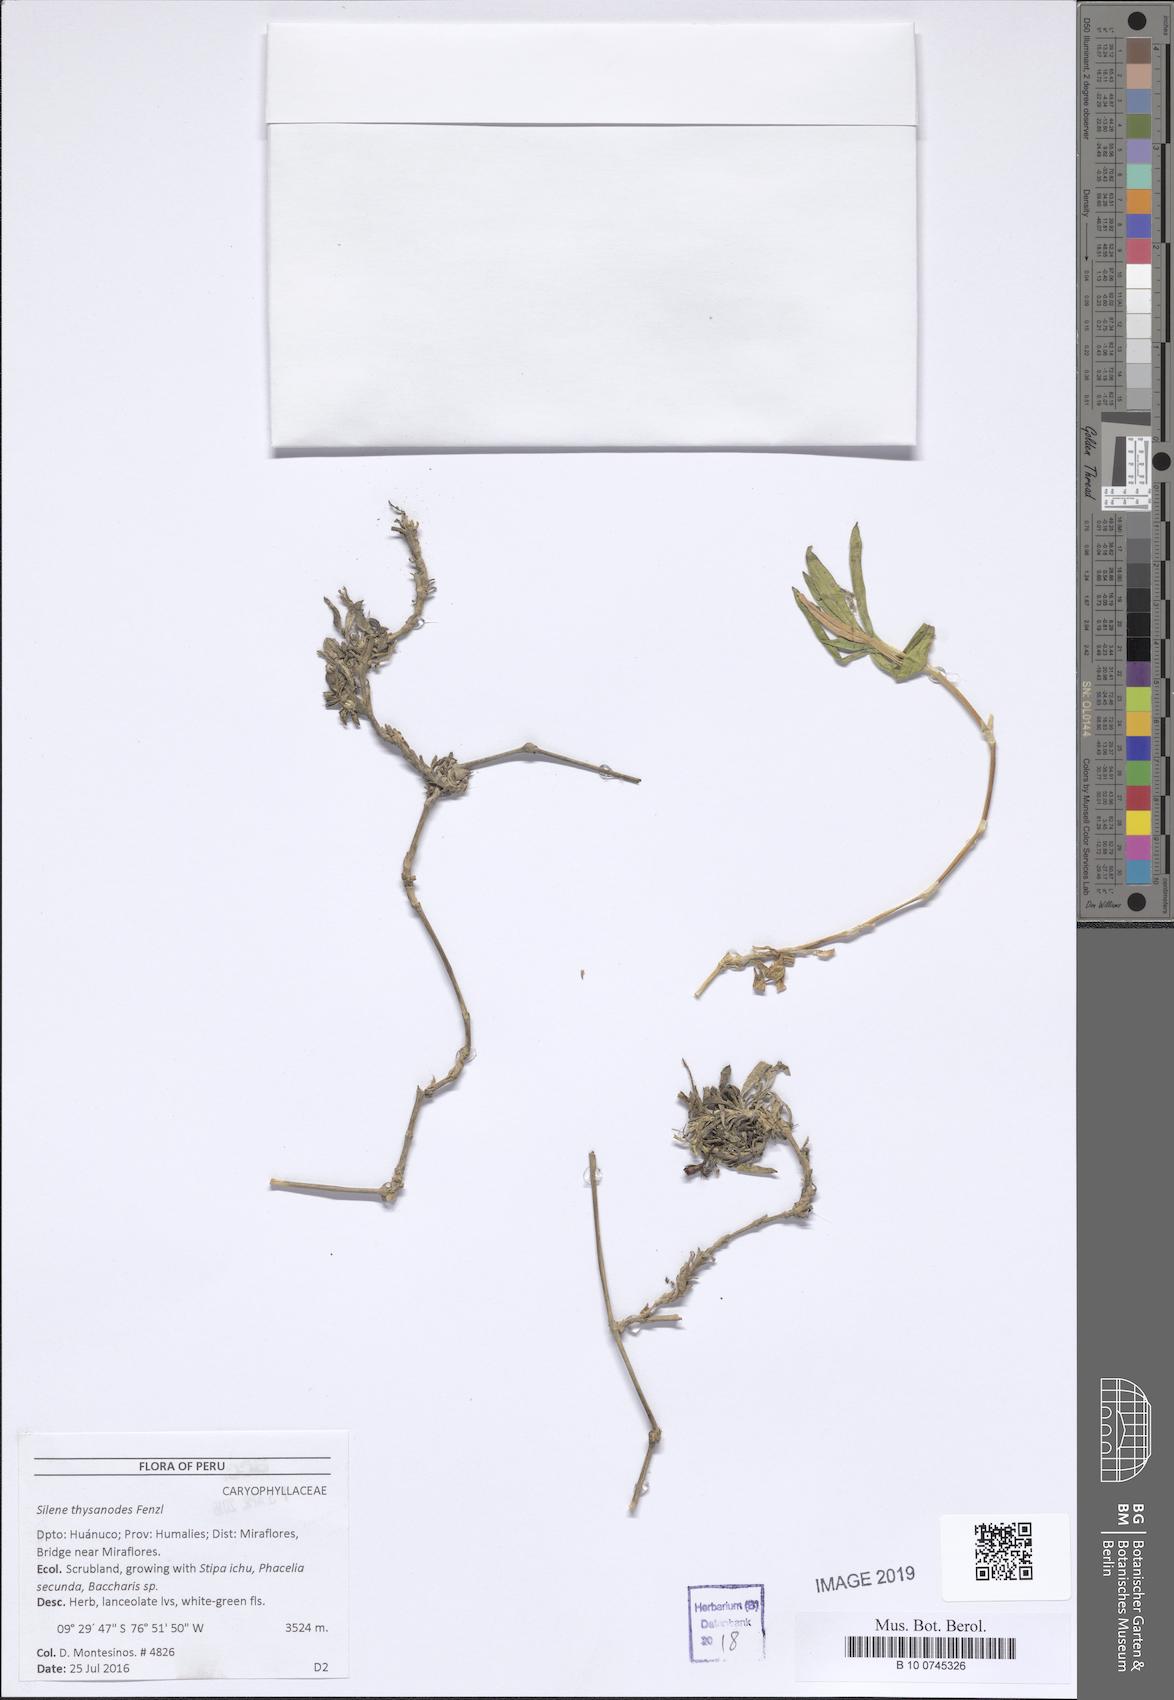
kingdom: Plantae
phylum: Tracheophyta
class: Magnoliopsida
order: Caryophyllales
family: Caryophyllaceae
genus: Silene
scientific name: Silene thysanodes
